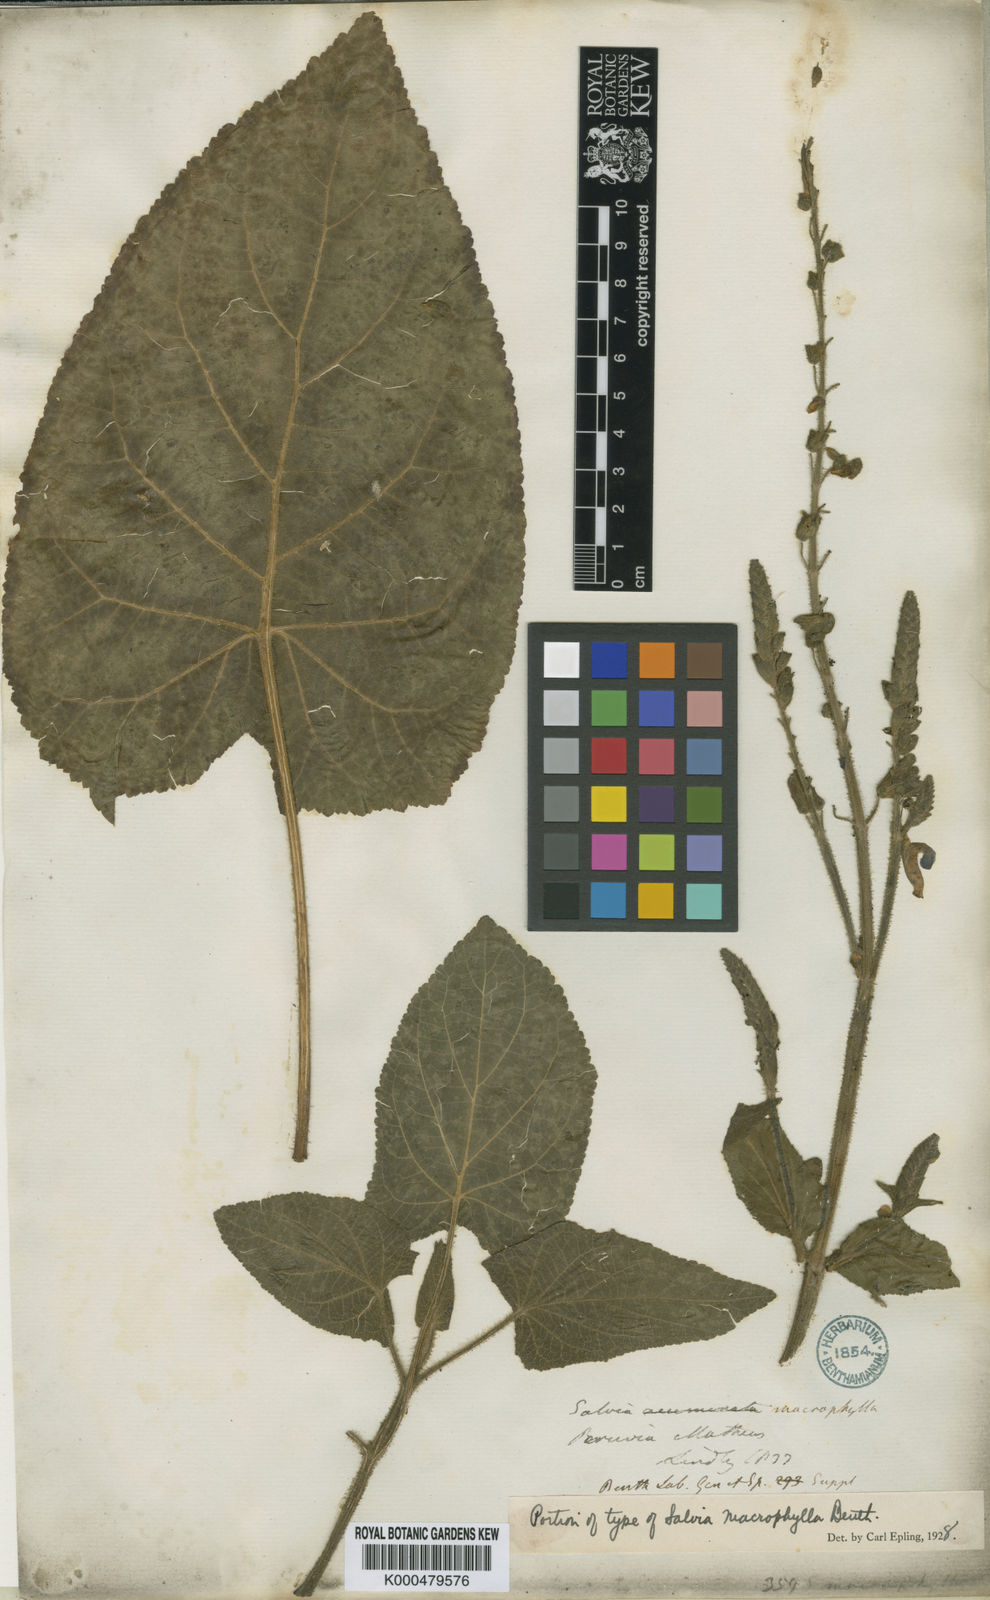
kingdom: Plantae
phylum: Tracheophyta
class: Magnoliopsida
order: Lamiales
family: Lamiaceae
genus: Salvia
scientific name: Salvia macrophylla
